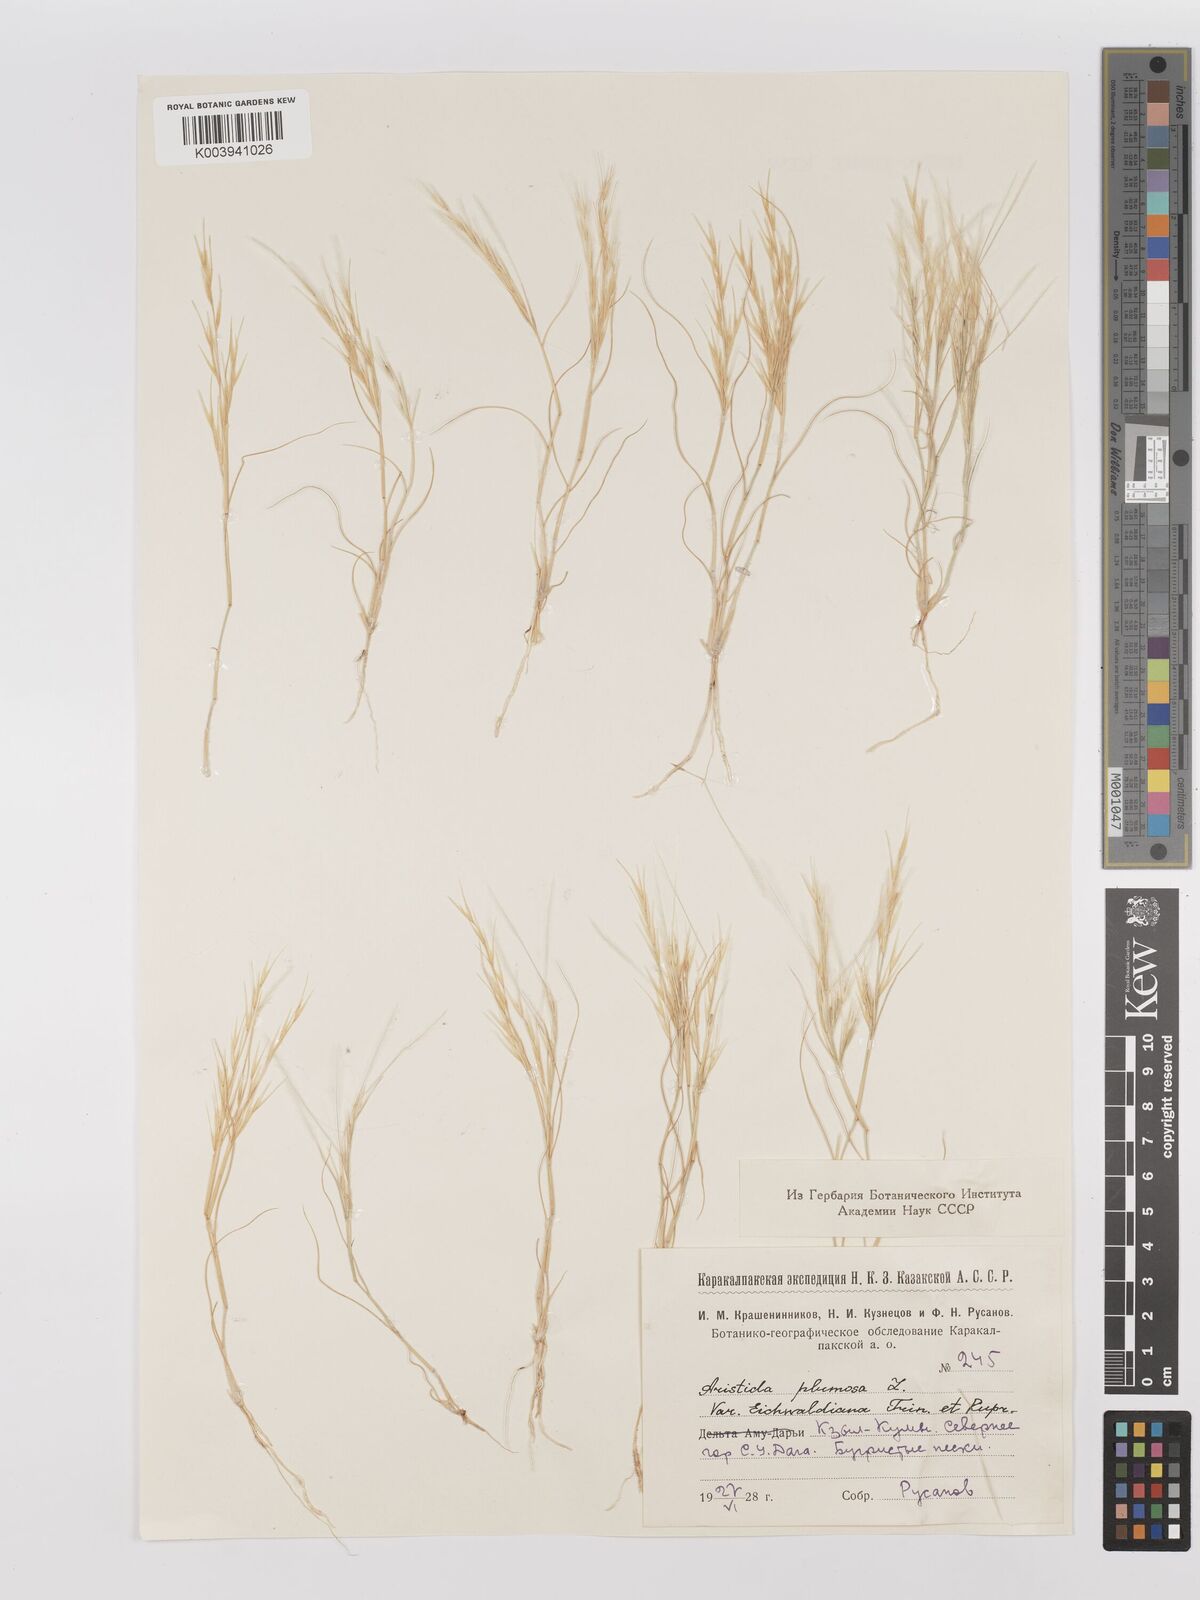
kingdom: Plantae
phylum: Tracheophyta
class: Liliopsida
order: Poales
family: Poaceae
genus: Stipagrostis
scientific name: Stipagrostis plumosa
